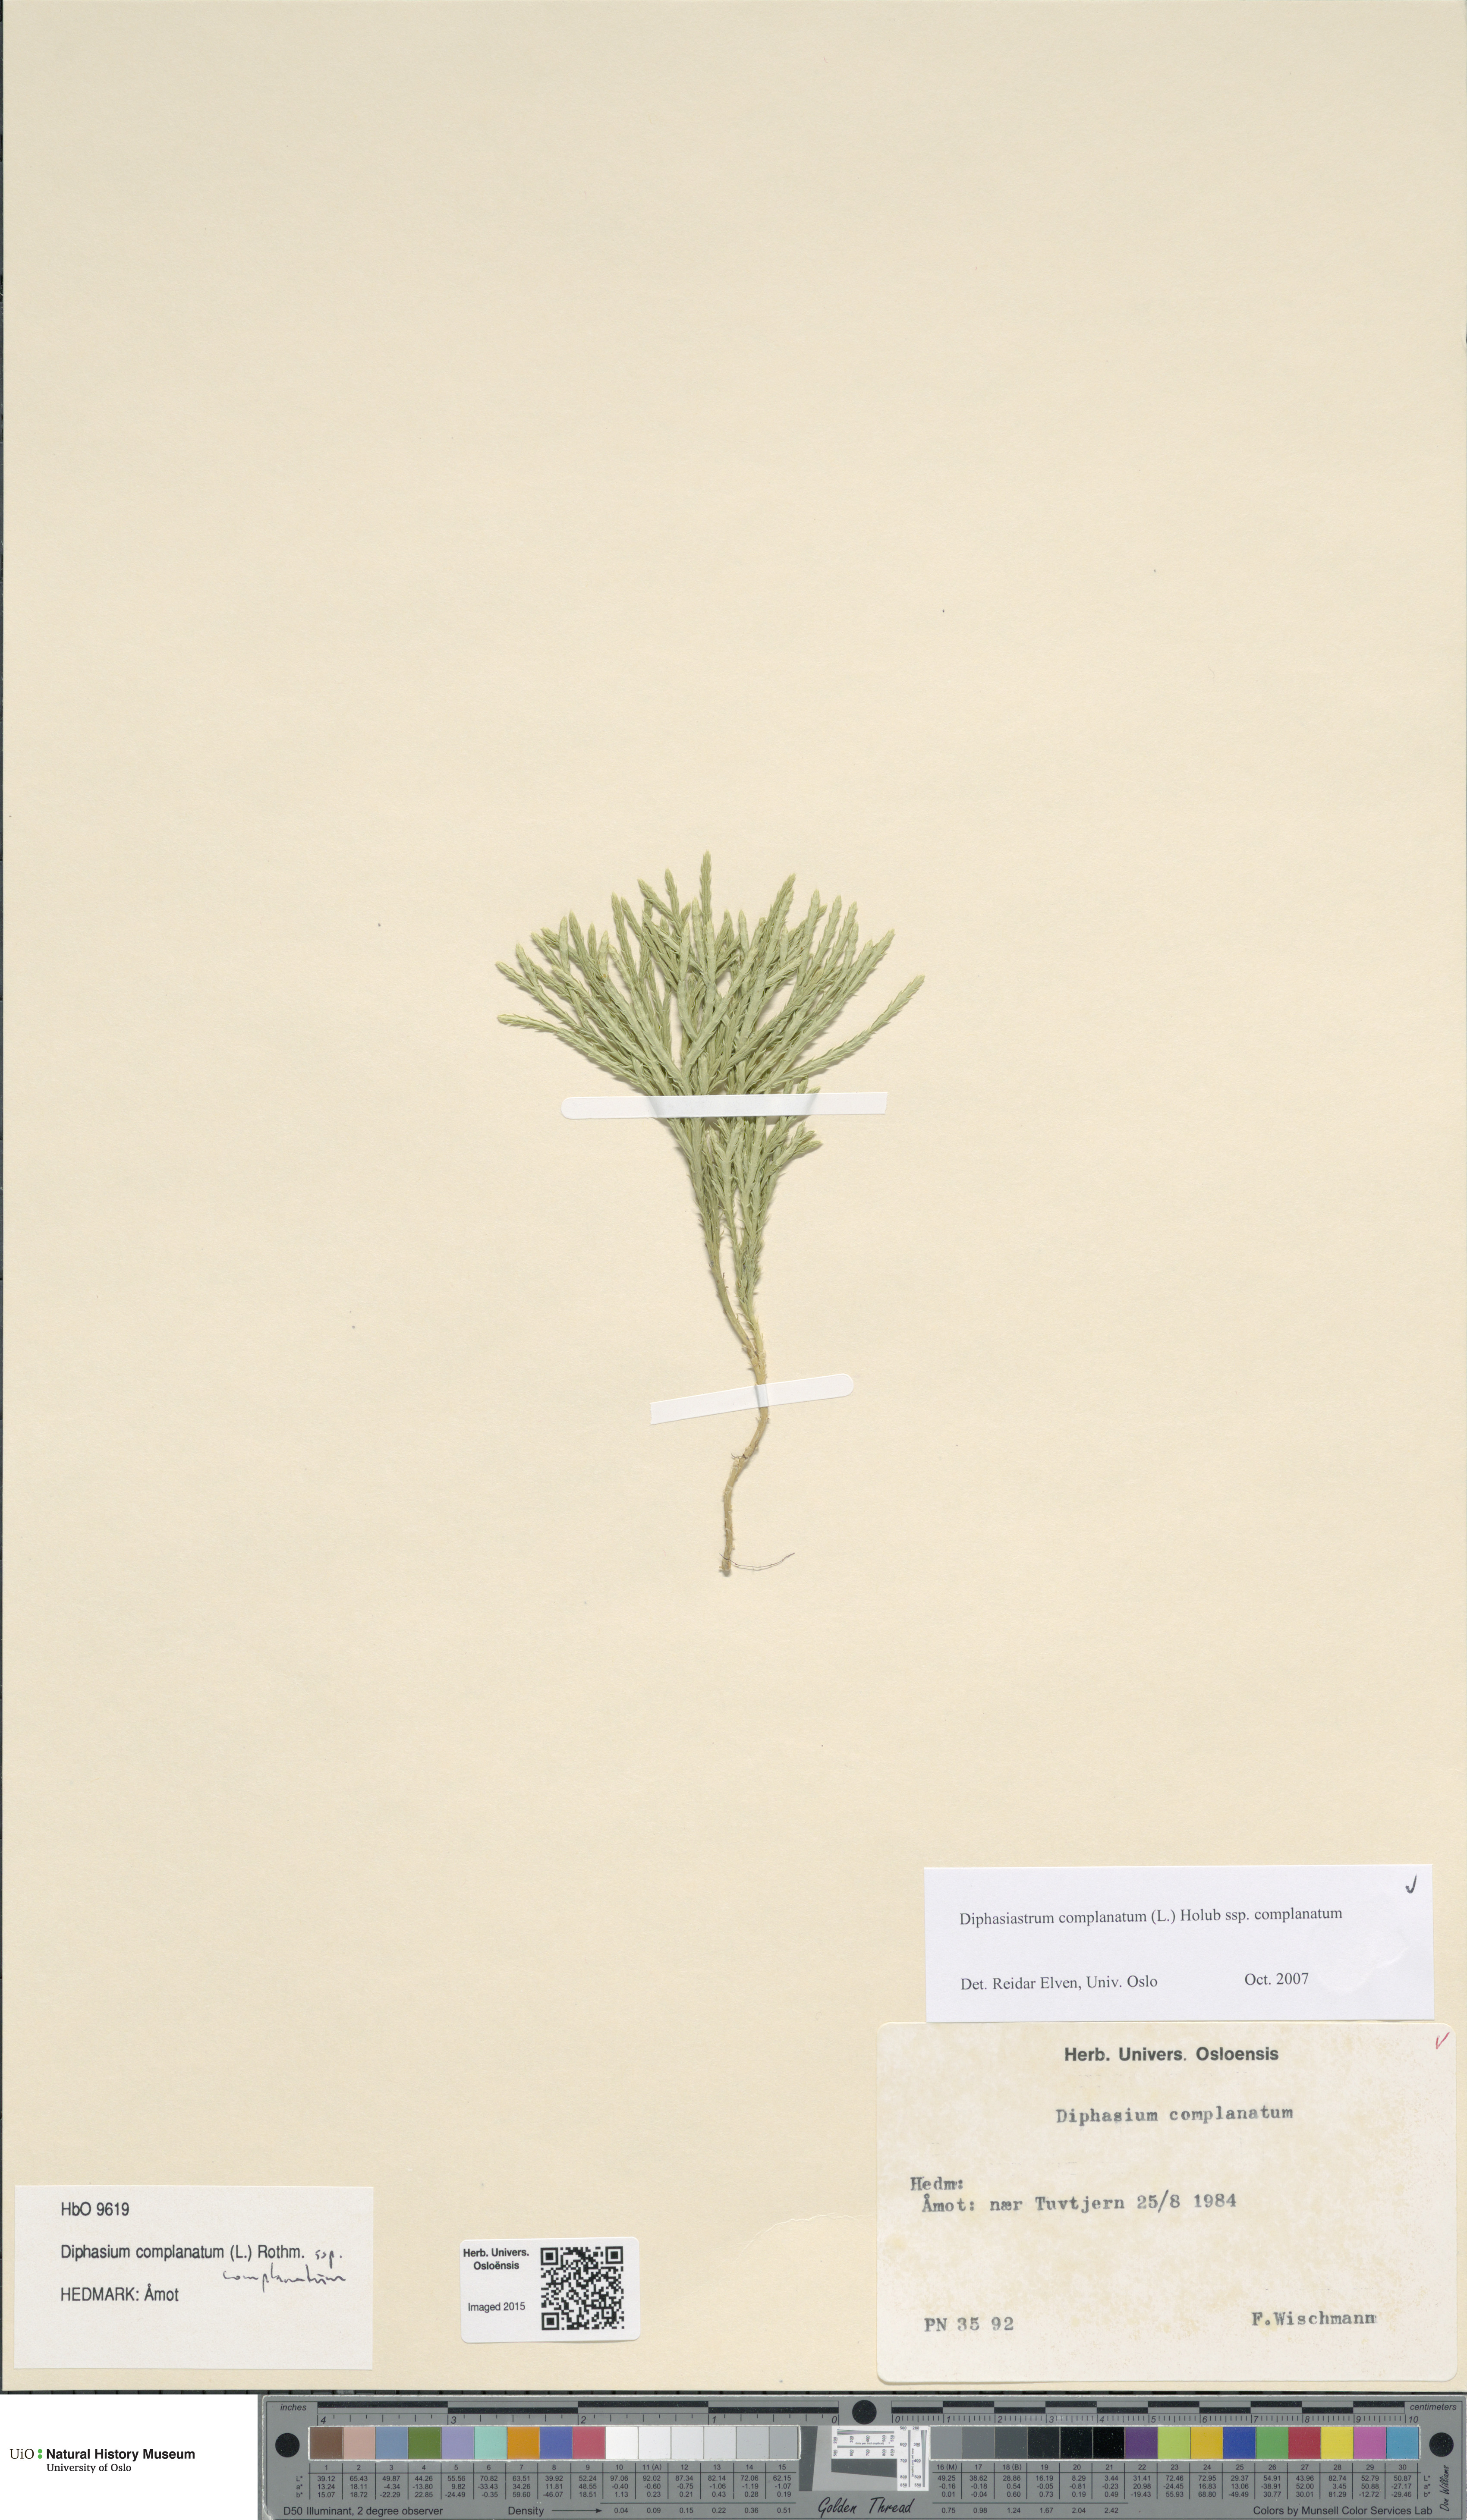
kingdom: Plantae
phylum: Tracheophyta
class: Lycopodiopsida
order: Lycopodiales
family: Lycopodiaceae
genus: Diphasiastrum
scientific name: Diphasiastrum complanatum
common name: Northern running-pine
